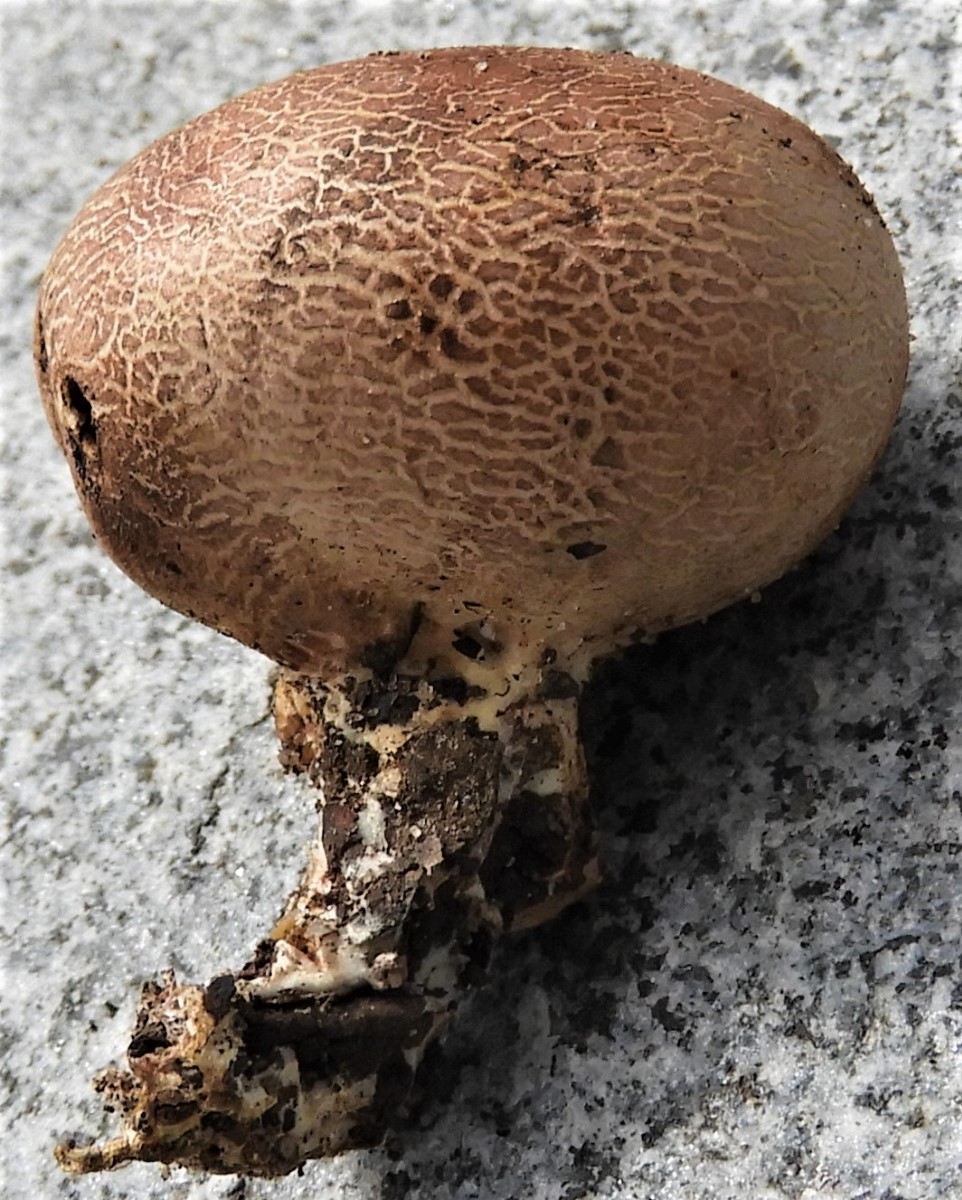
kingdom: Fungi
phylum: Basidiomycota
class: Agaricomycetes
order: Boletales
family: Sclerodermataceae
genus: Scleroderma
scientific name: Scleroderma
